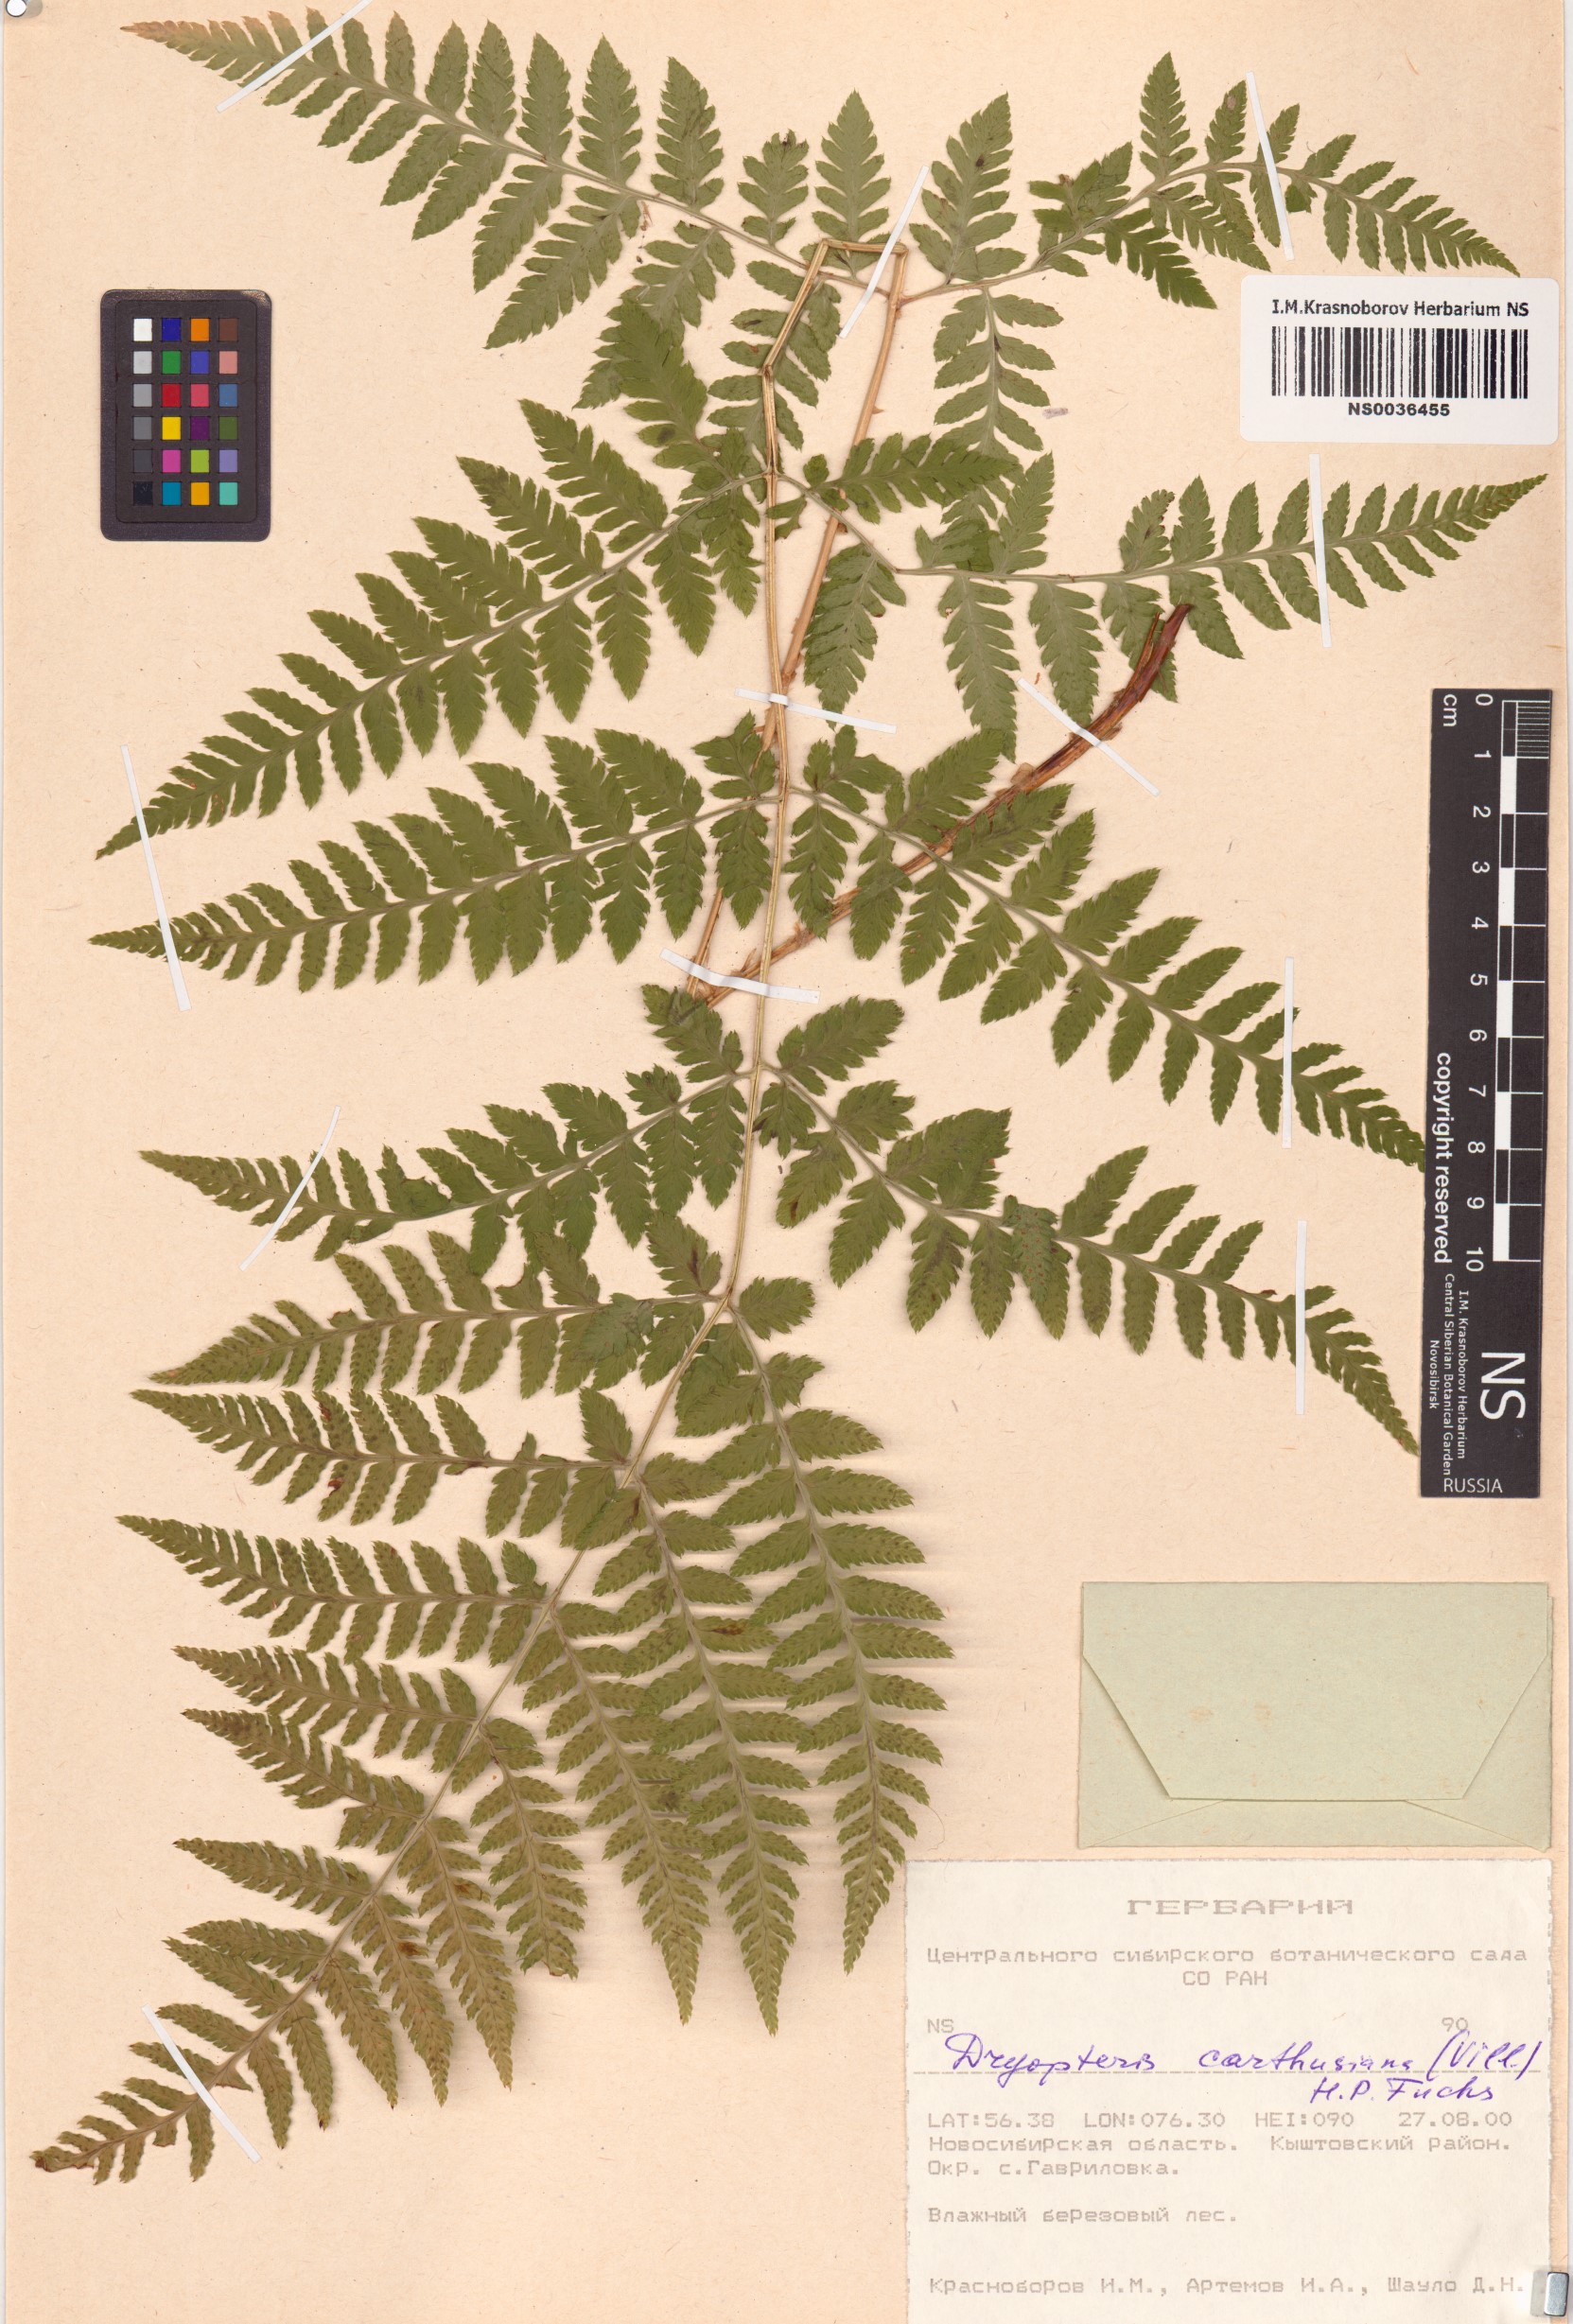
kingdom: Plantae
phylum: Tracheophyta
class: Polypodiopsida
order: Polypodiales
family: Dryopteridaceae
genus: Dryopteris
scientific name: Dryopteris carthusiana
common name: Narrow buckler-fern
